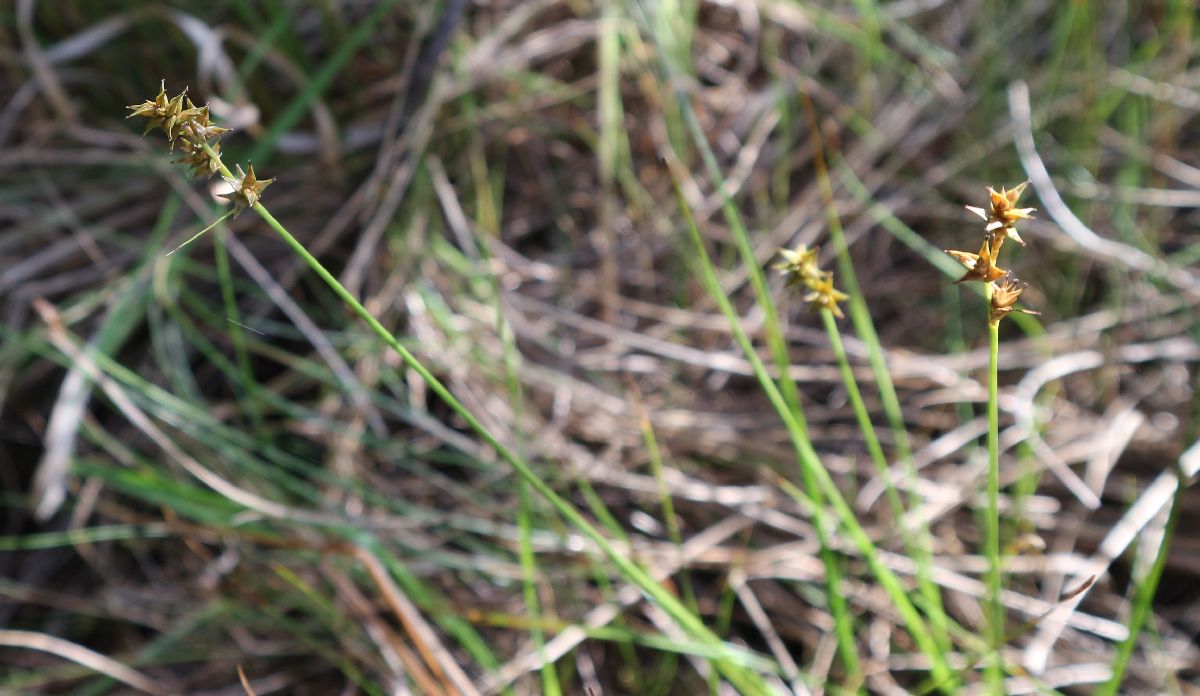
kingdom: Plantae
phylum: Tracheophyta
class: Liliopsida
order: Poales
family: Cyperaceae
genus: Carex
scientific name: Carex echinata
